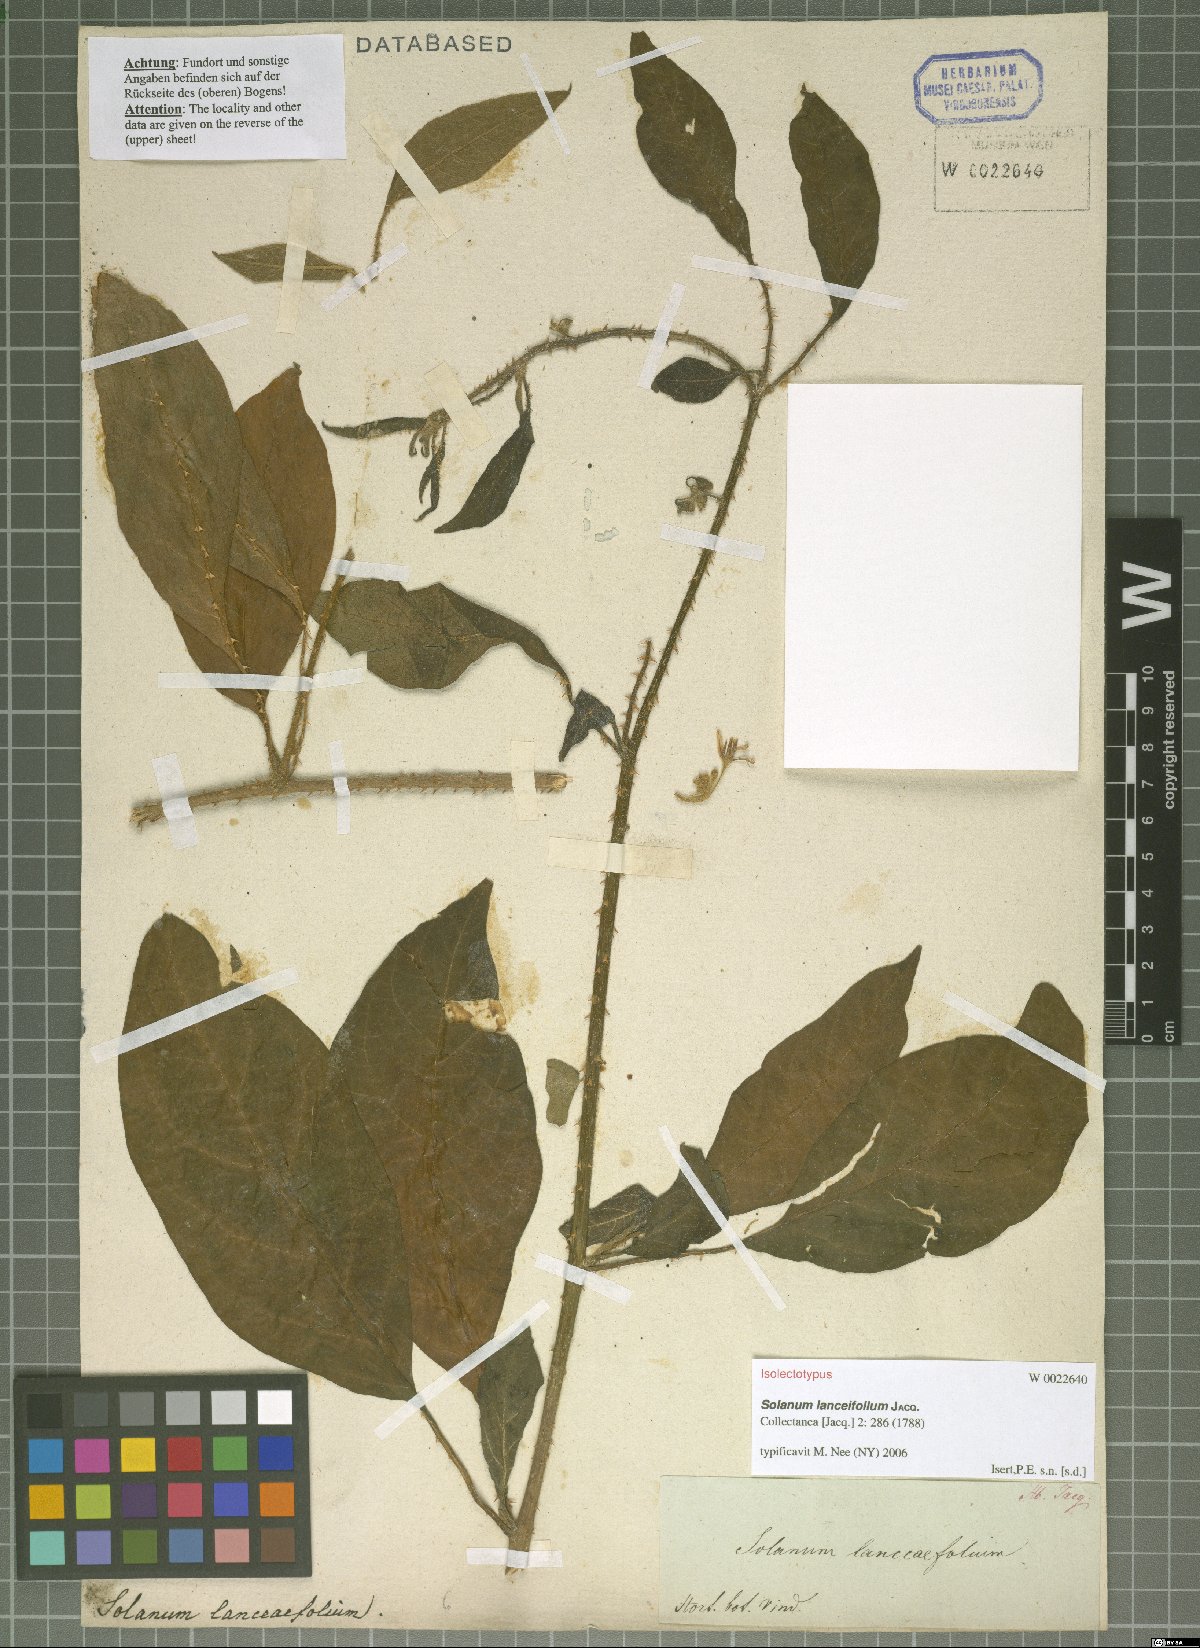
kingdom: Plantae
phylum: Tracheophyta
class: Magnoliopsida
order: Solanales
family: Solanaceae
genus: Solanum
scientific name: Solanum lanceifolium
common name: Lanceleaf nightshade
